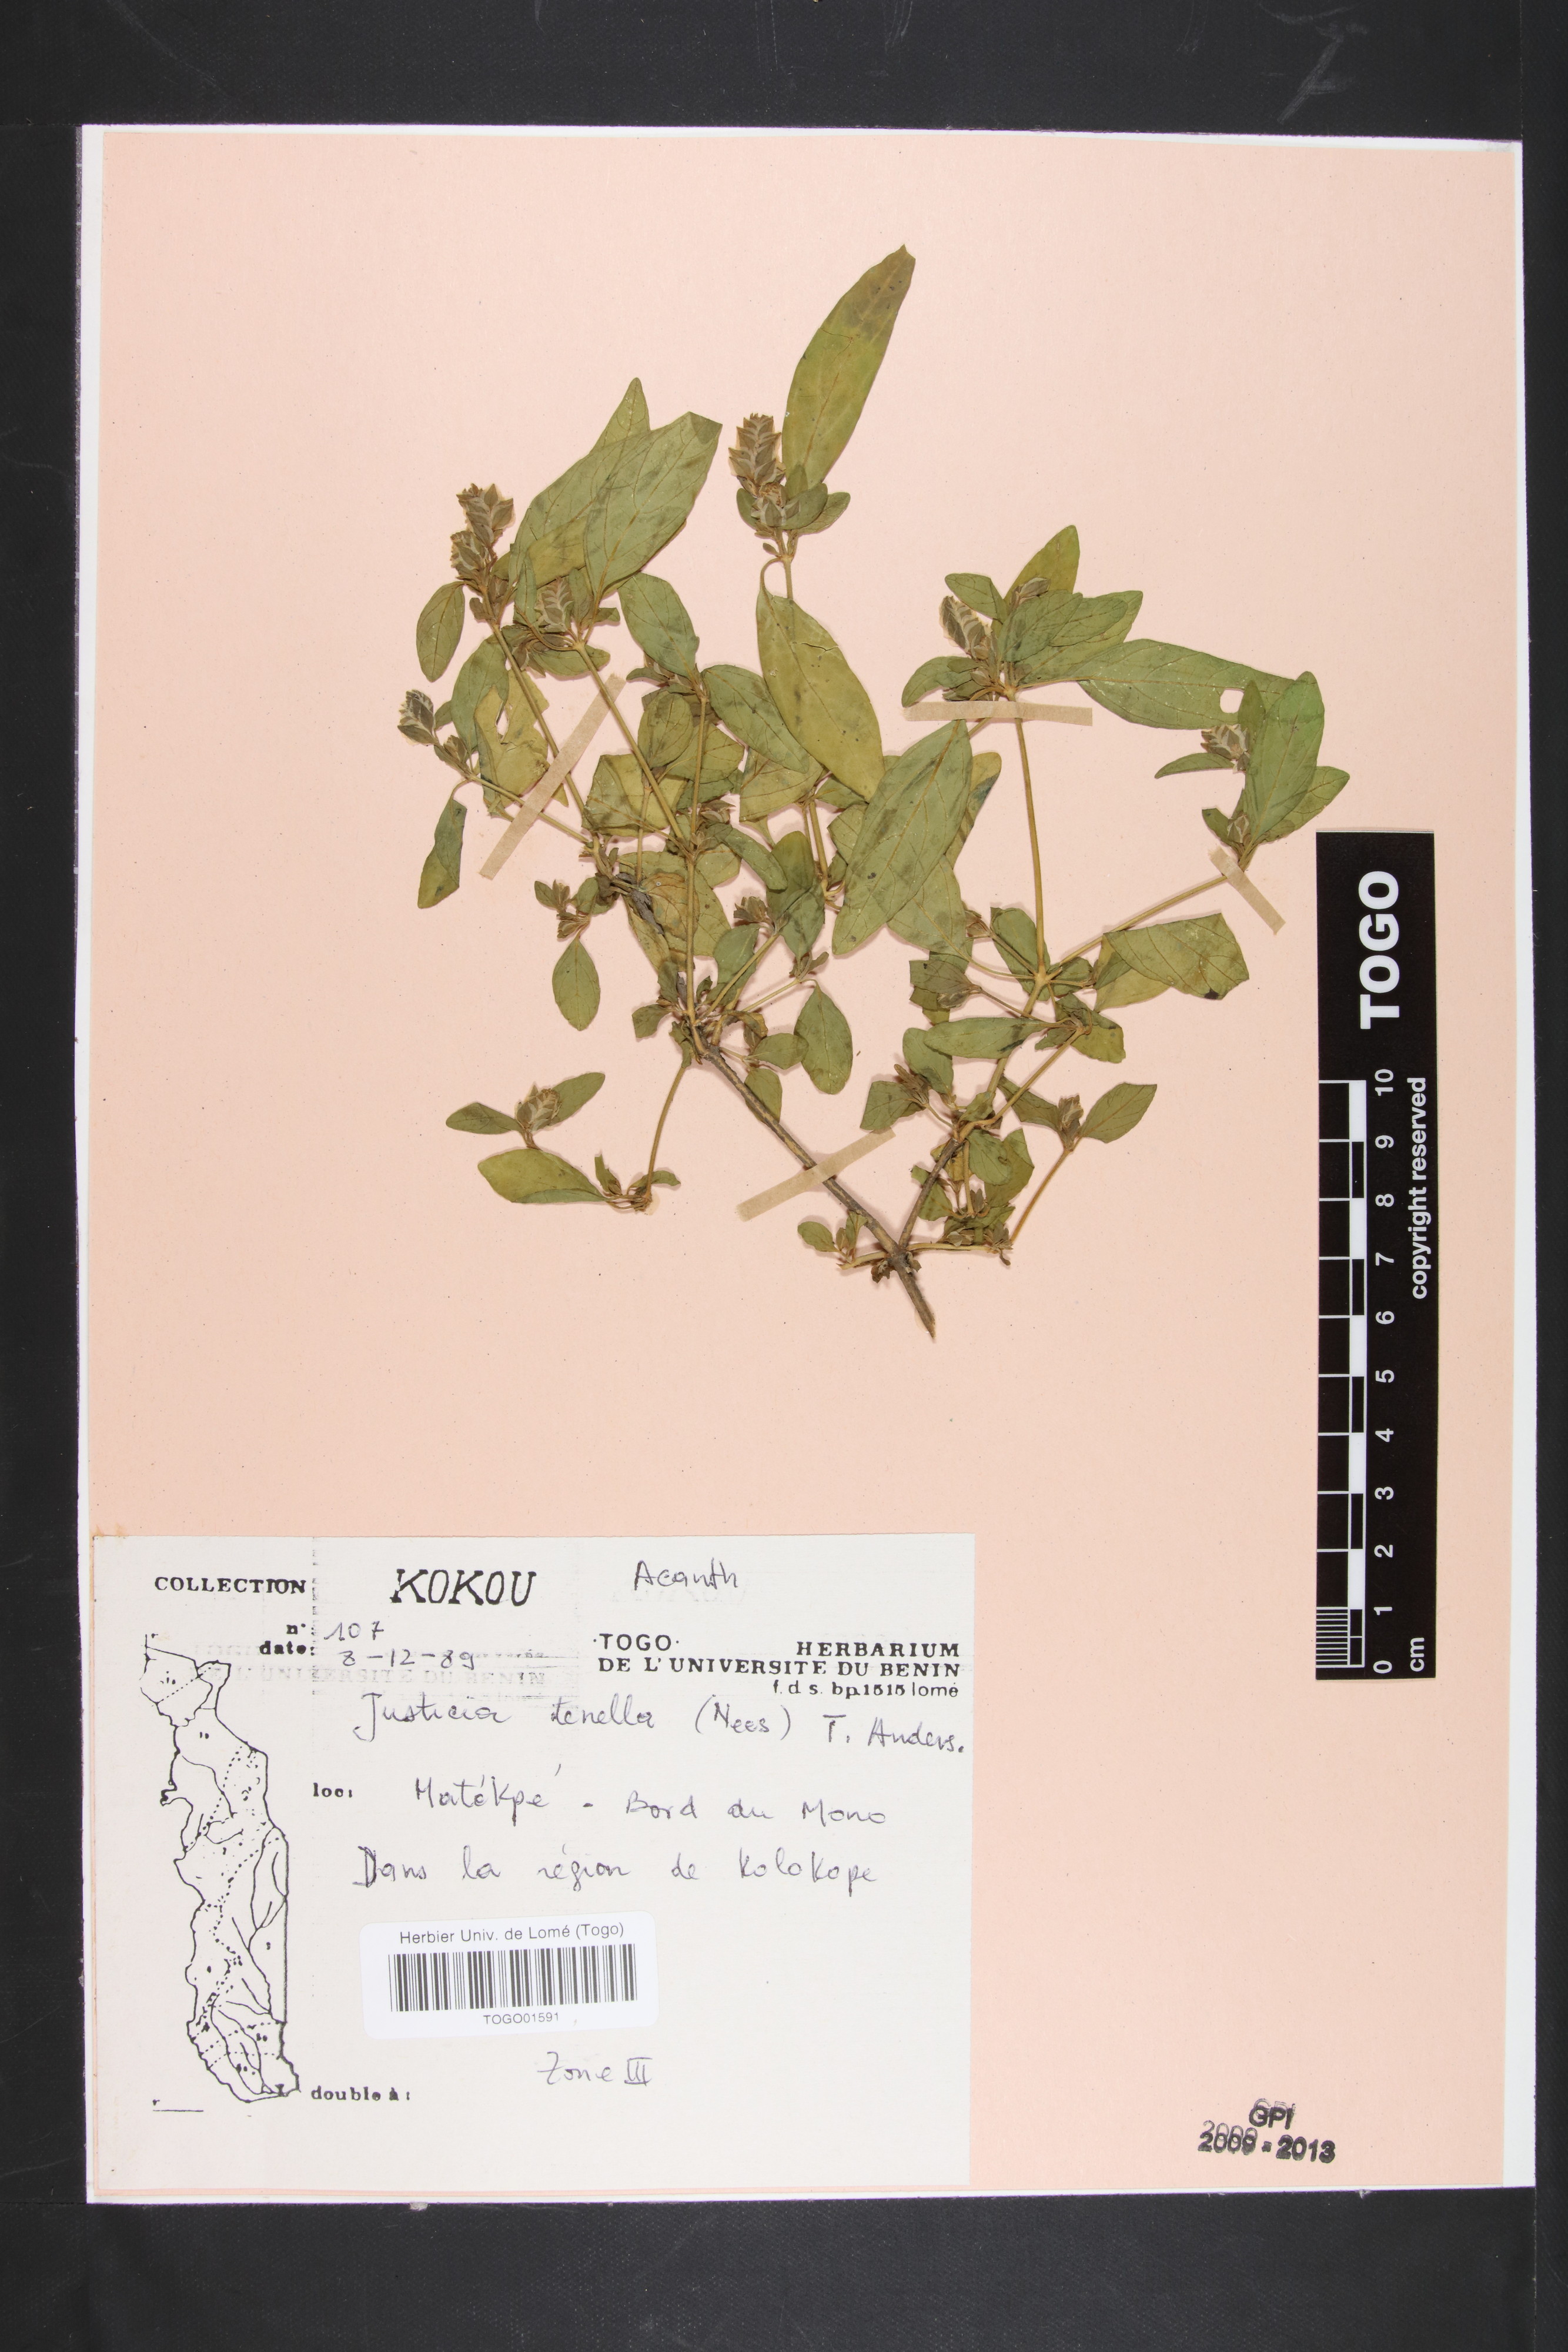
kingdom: Plantae
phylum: Tracheophyta
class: Magnoliopsida
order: Lamiales
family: Acanthaceae
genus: Anisostachya
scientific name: Anisostachya tenella
